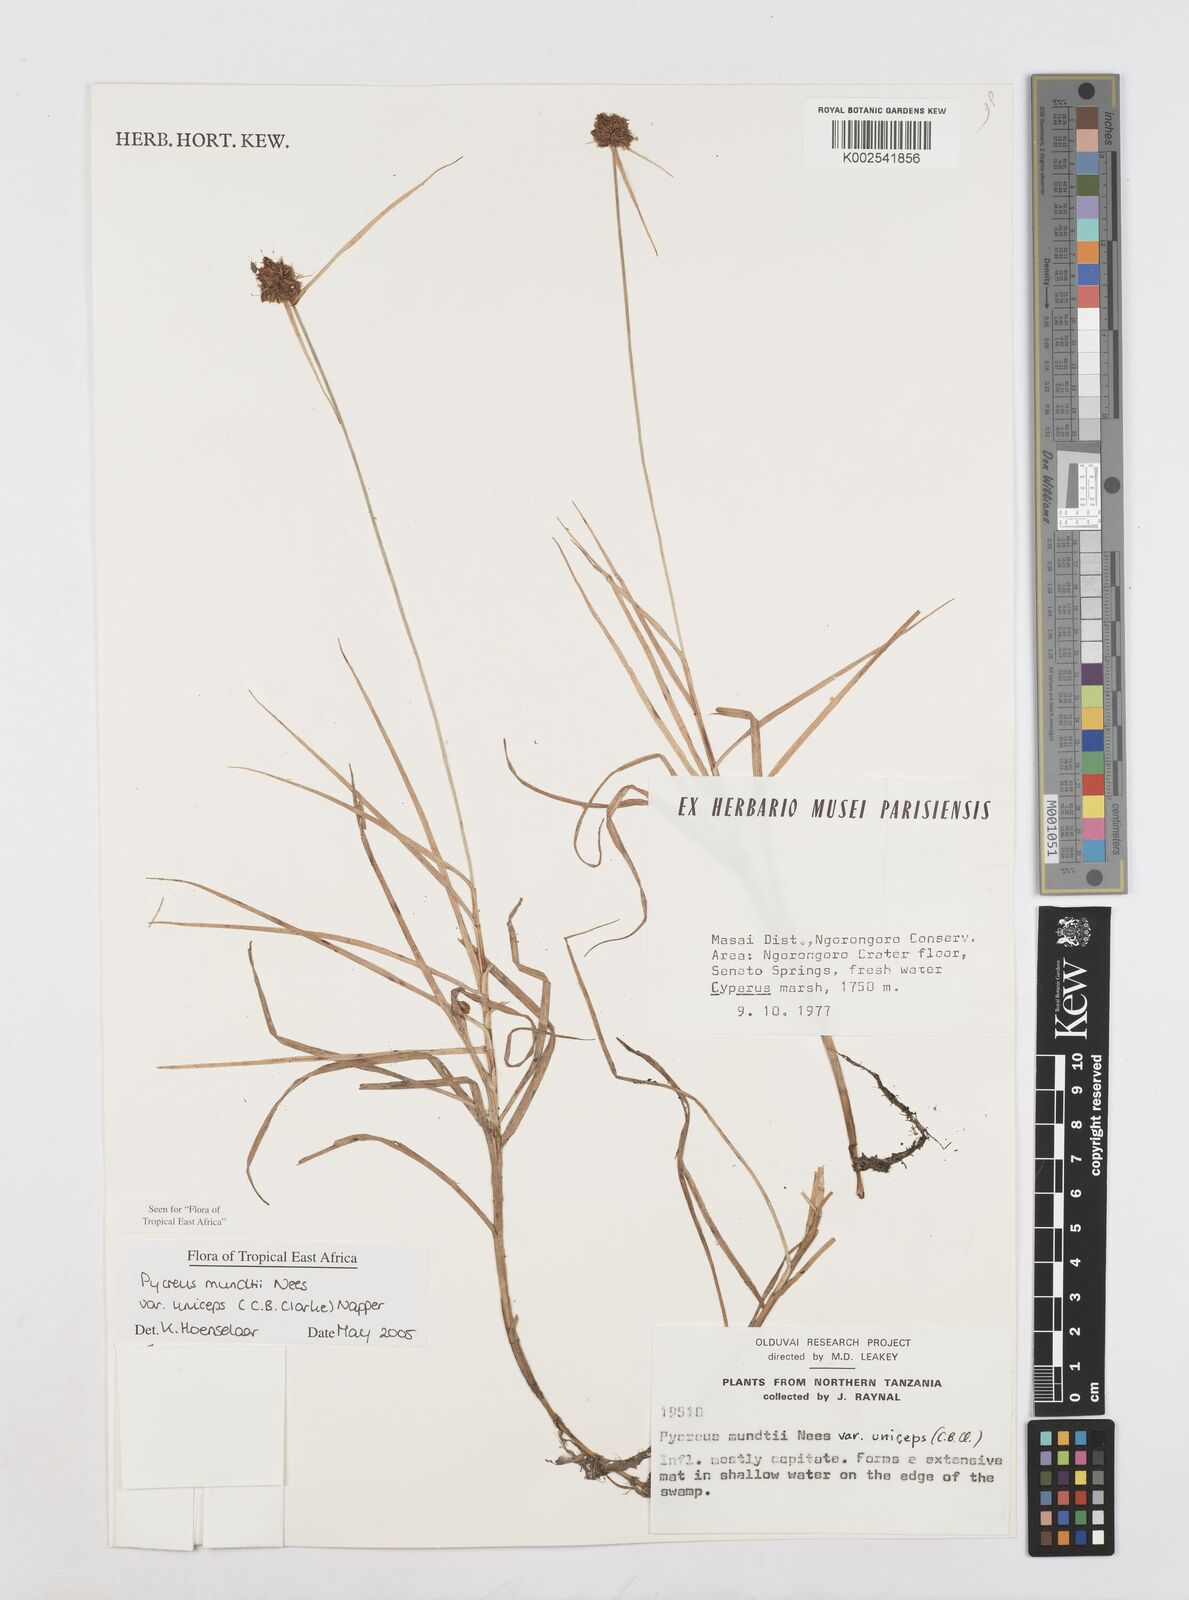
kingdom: Plantae
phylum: Tracheophyta
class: Liliopsida
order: Poales
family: Cyperaceae
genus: Cyperus
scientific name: Cyperus mundii
